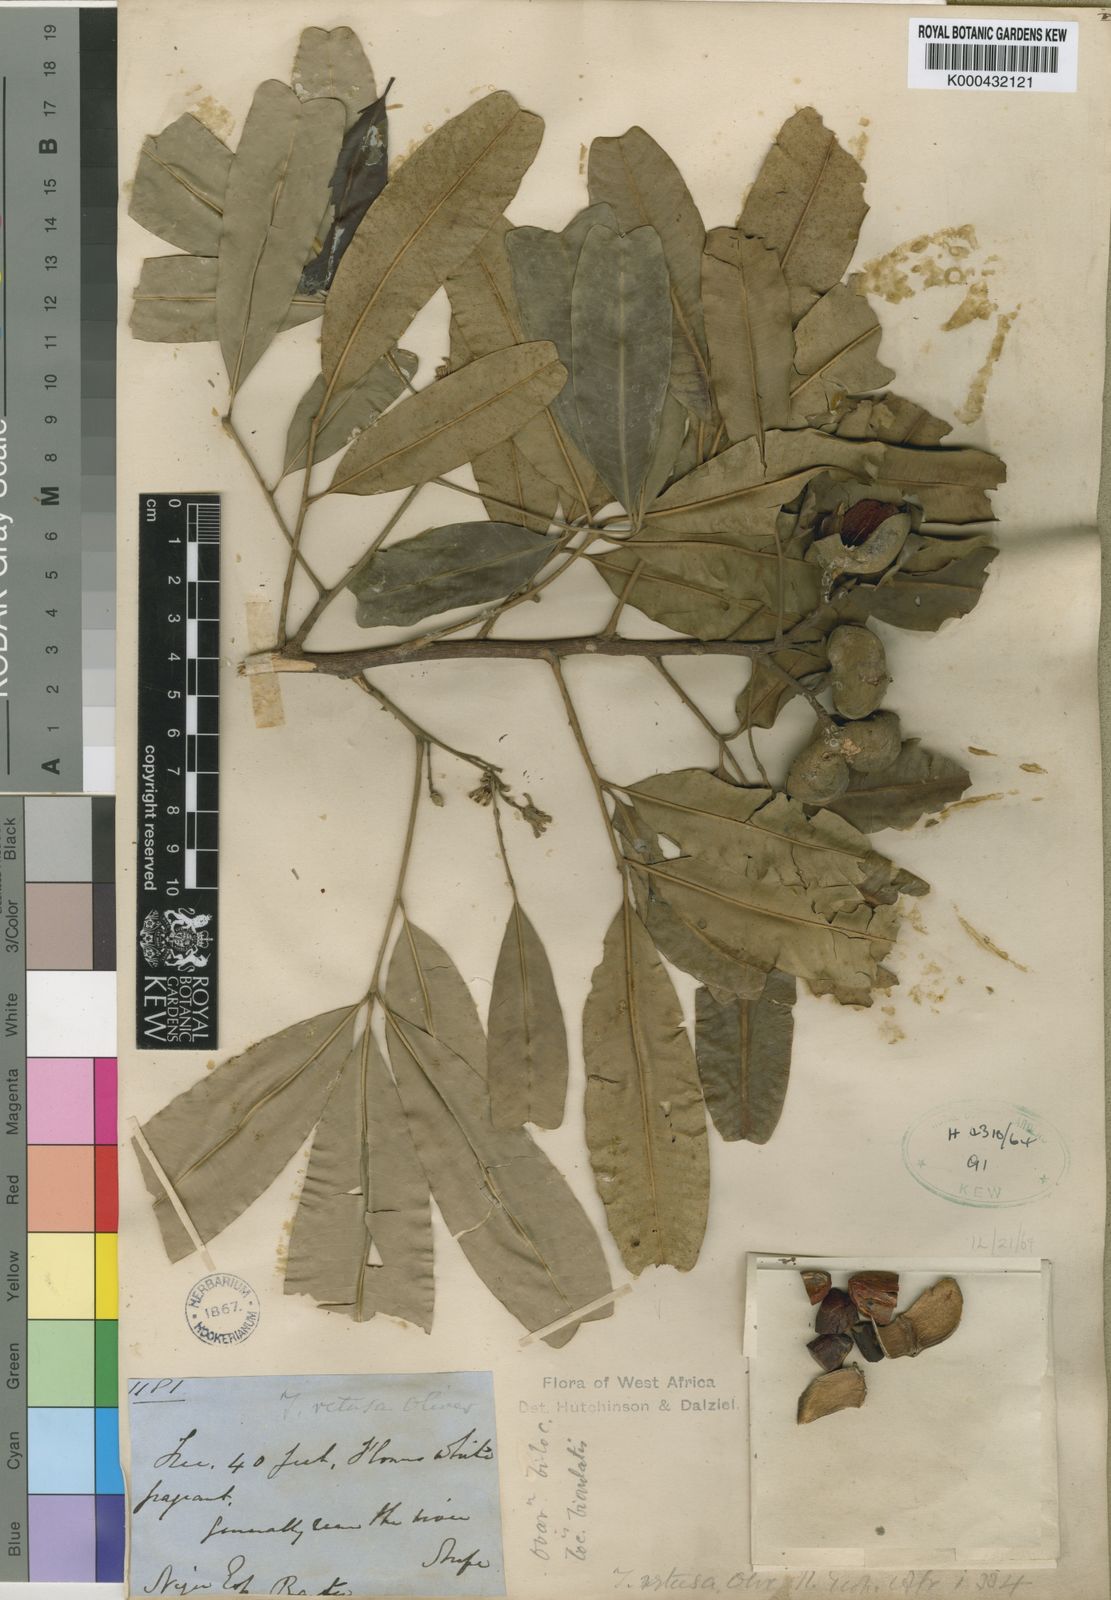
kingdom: Plantae
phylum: Tracheophyta
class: Magnoliopsida
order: Sapindales
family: Meliaceae
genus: Trichilia
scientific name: Trichilia retusa
